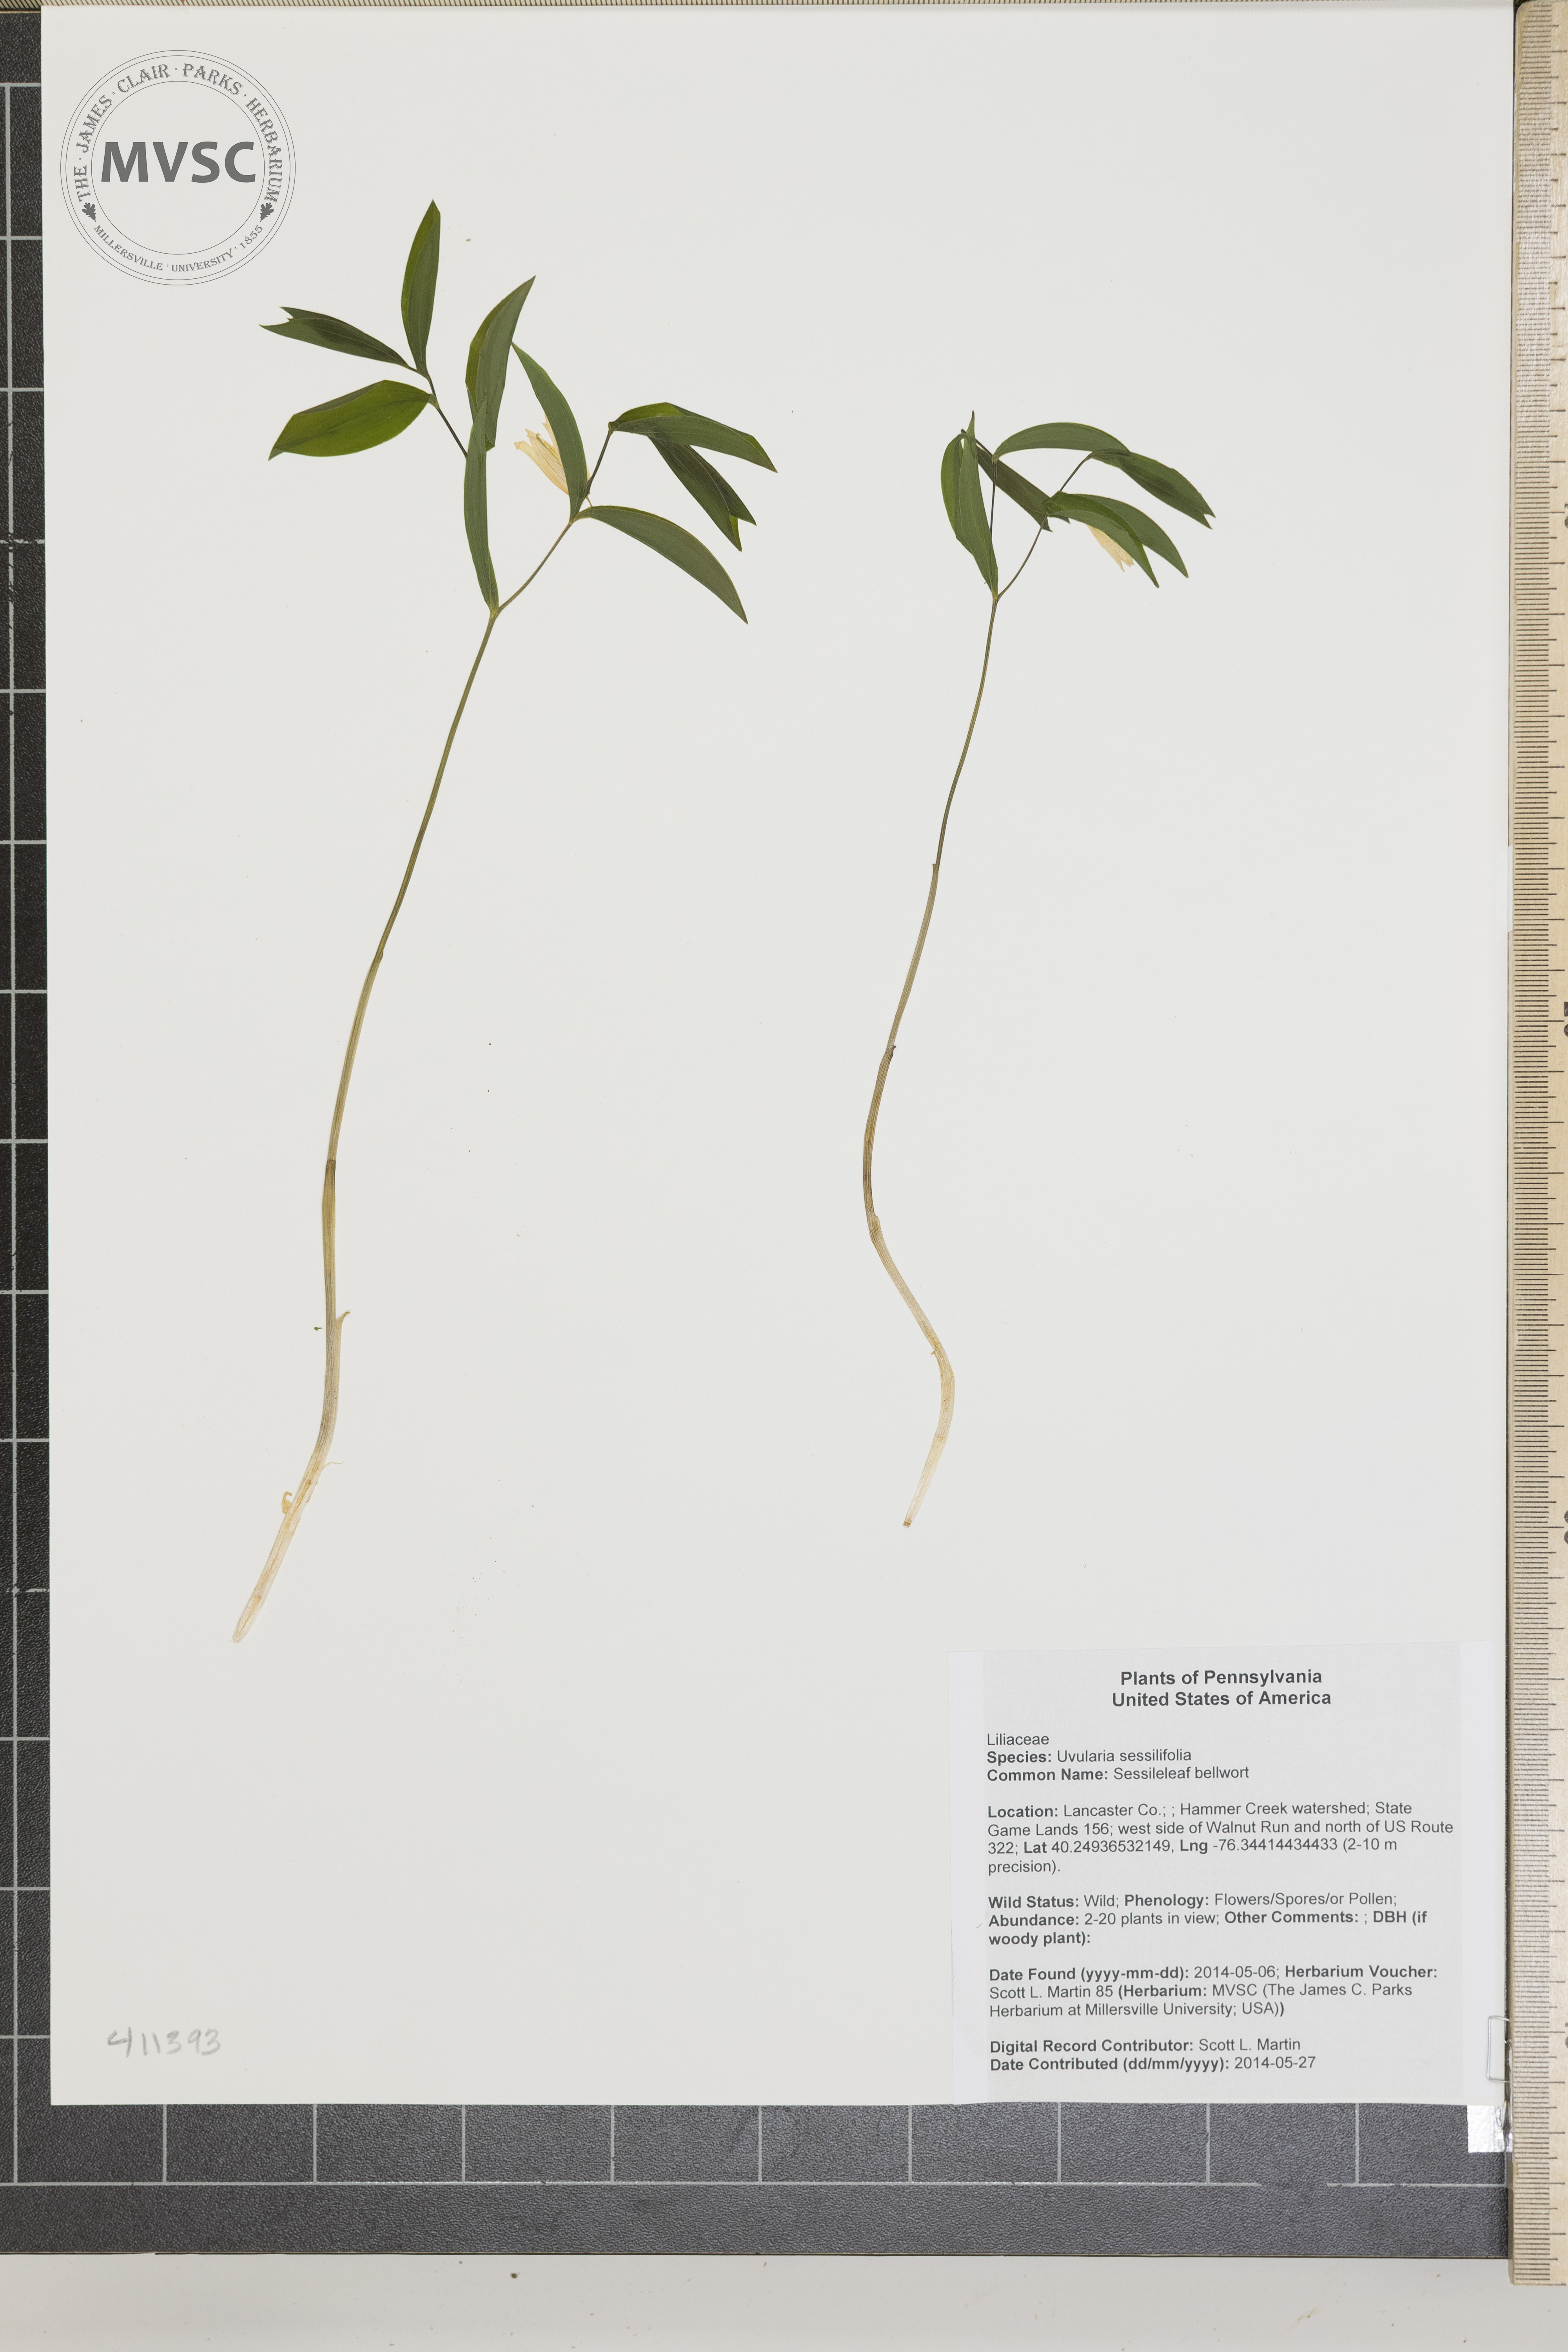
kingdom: Plantae
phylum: Tracheophyta
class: Liliopsida
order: Liliales
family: Colchicaceae
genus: Uvularia
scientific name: Uvularia sessilifolia
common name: Sessileleaf bellwort
